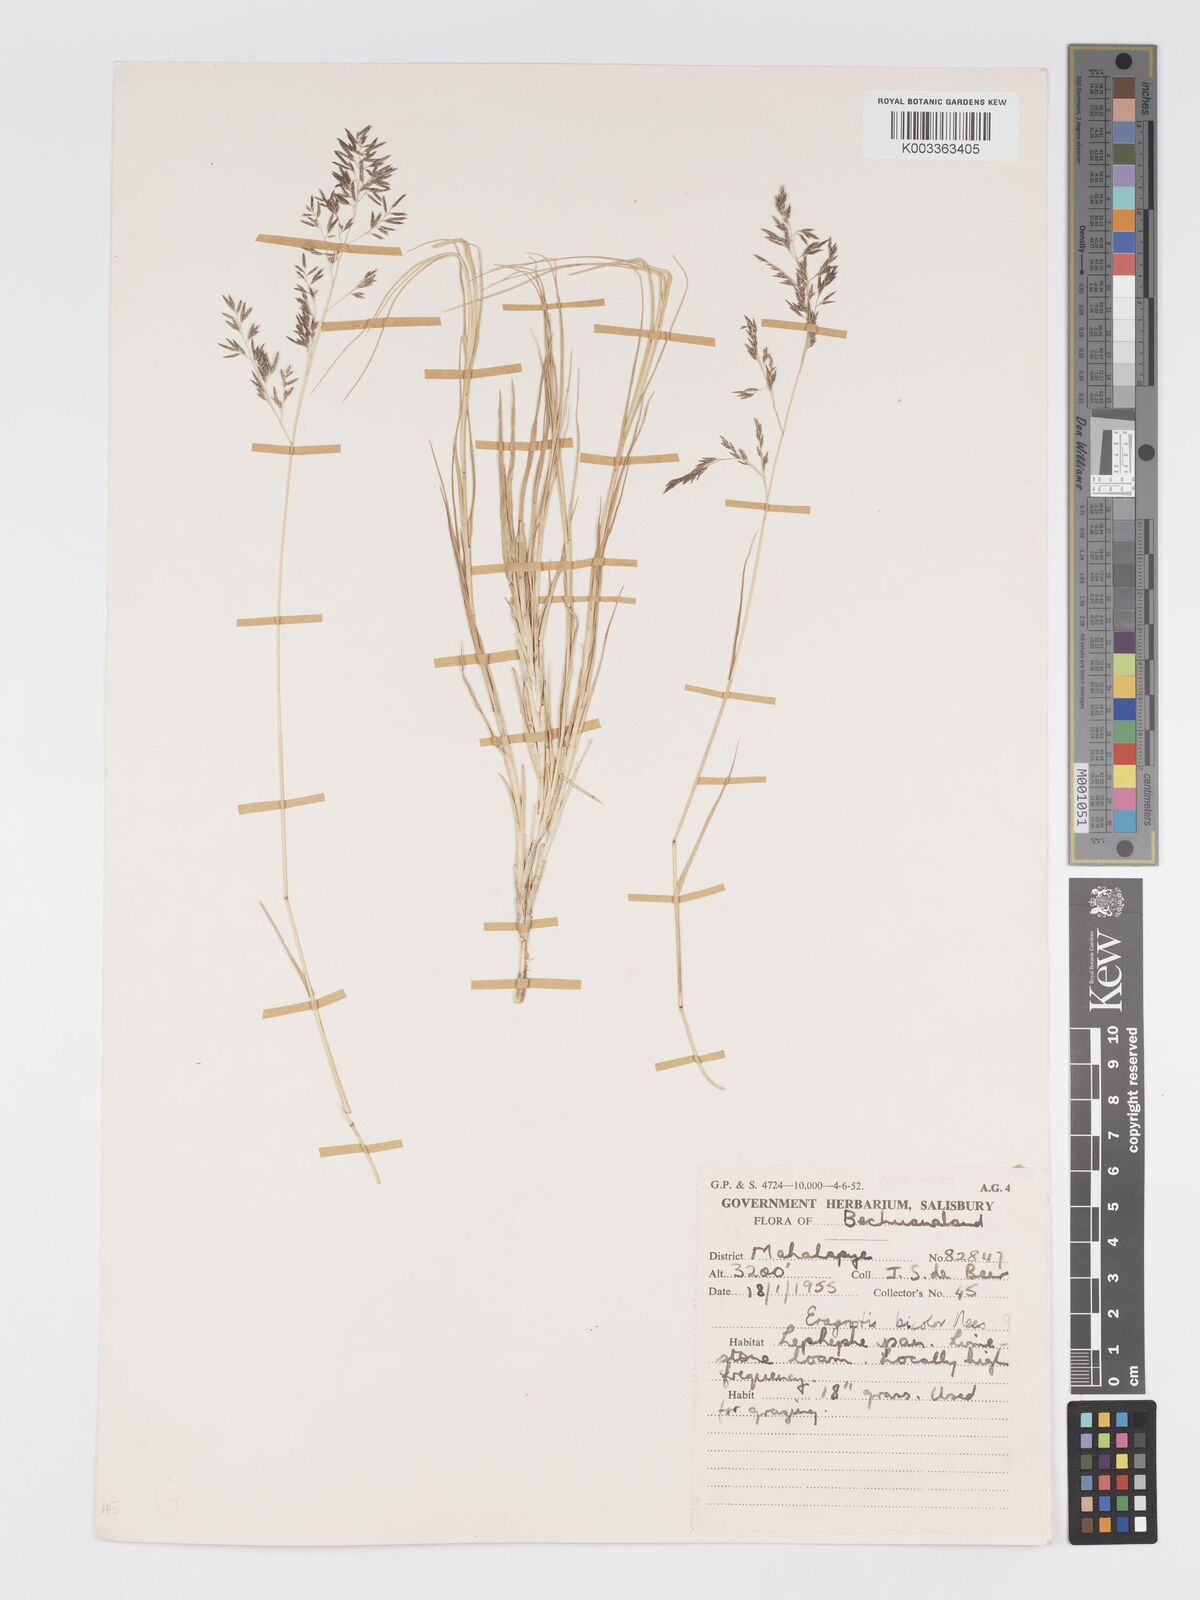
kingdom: Plantae
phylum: Tracheophyta
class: Liliopsida
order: Poales
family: Poaceae
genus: Eragrostis
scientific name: Eragrostis lehmanniana
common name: Lehmann lovegrass
